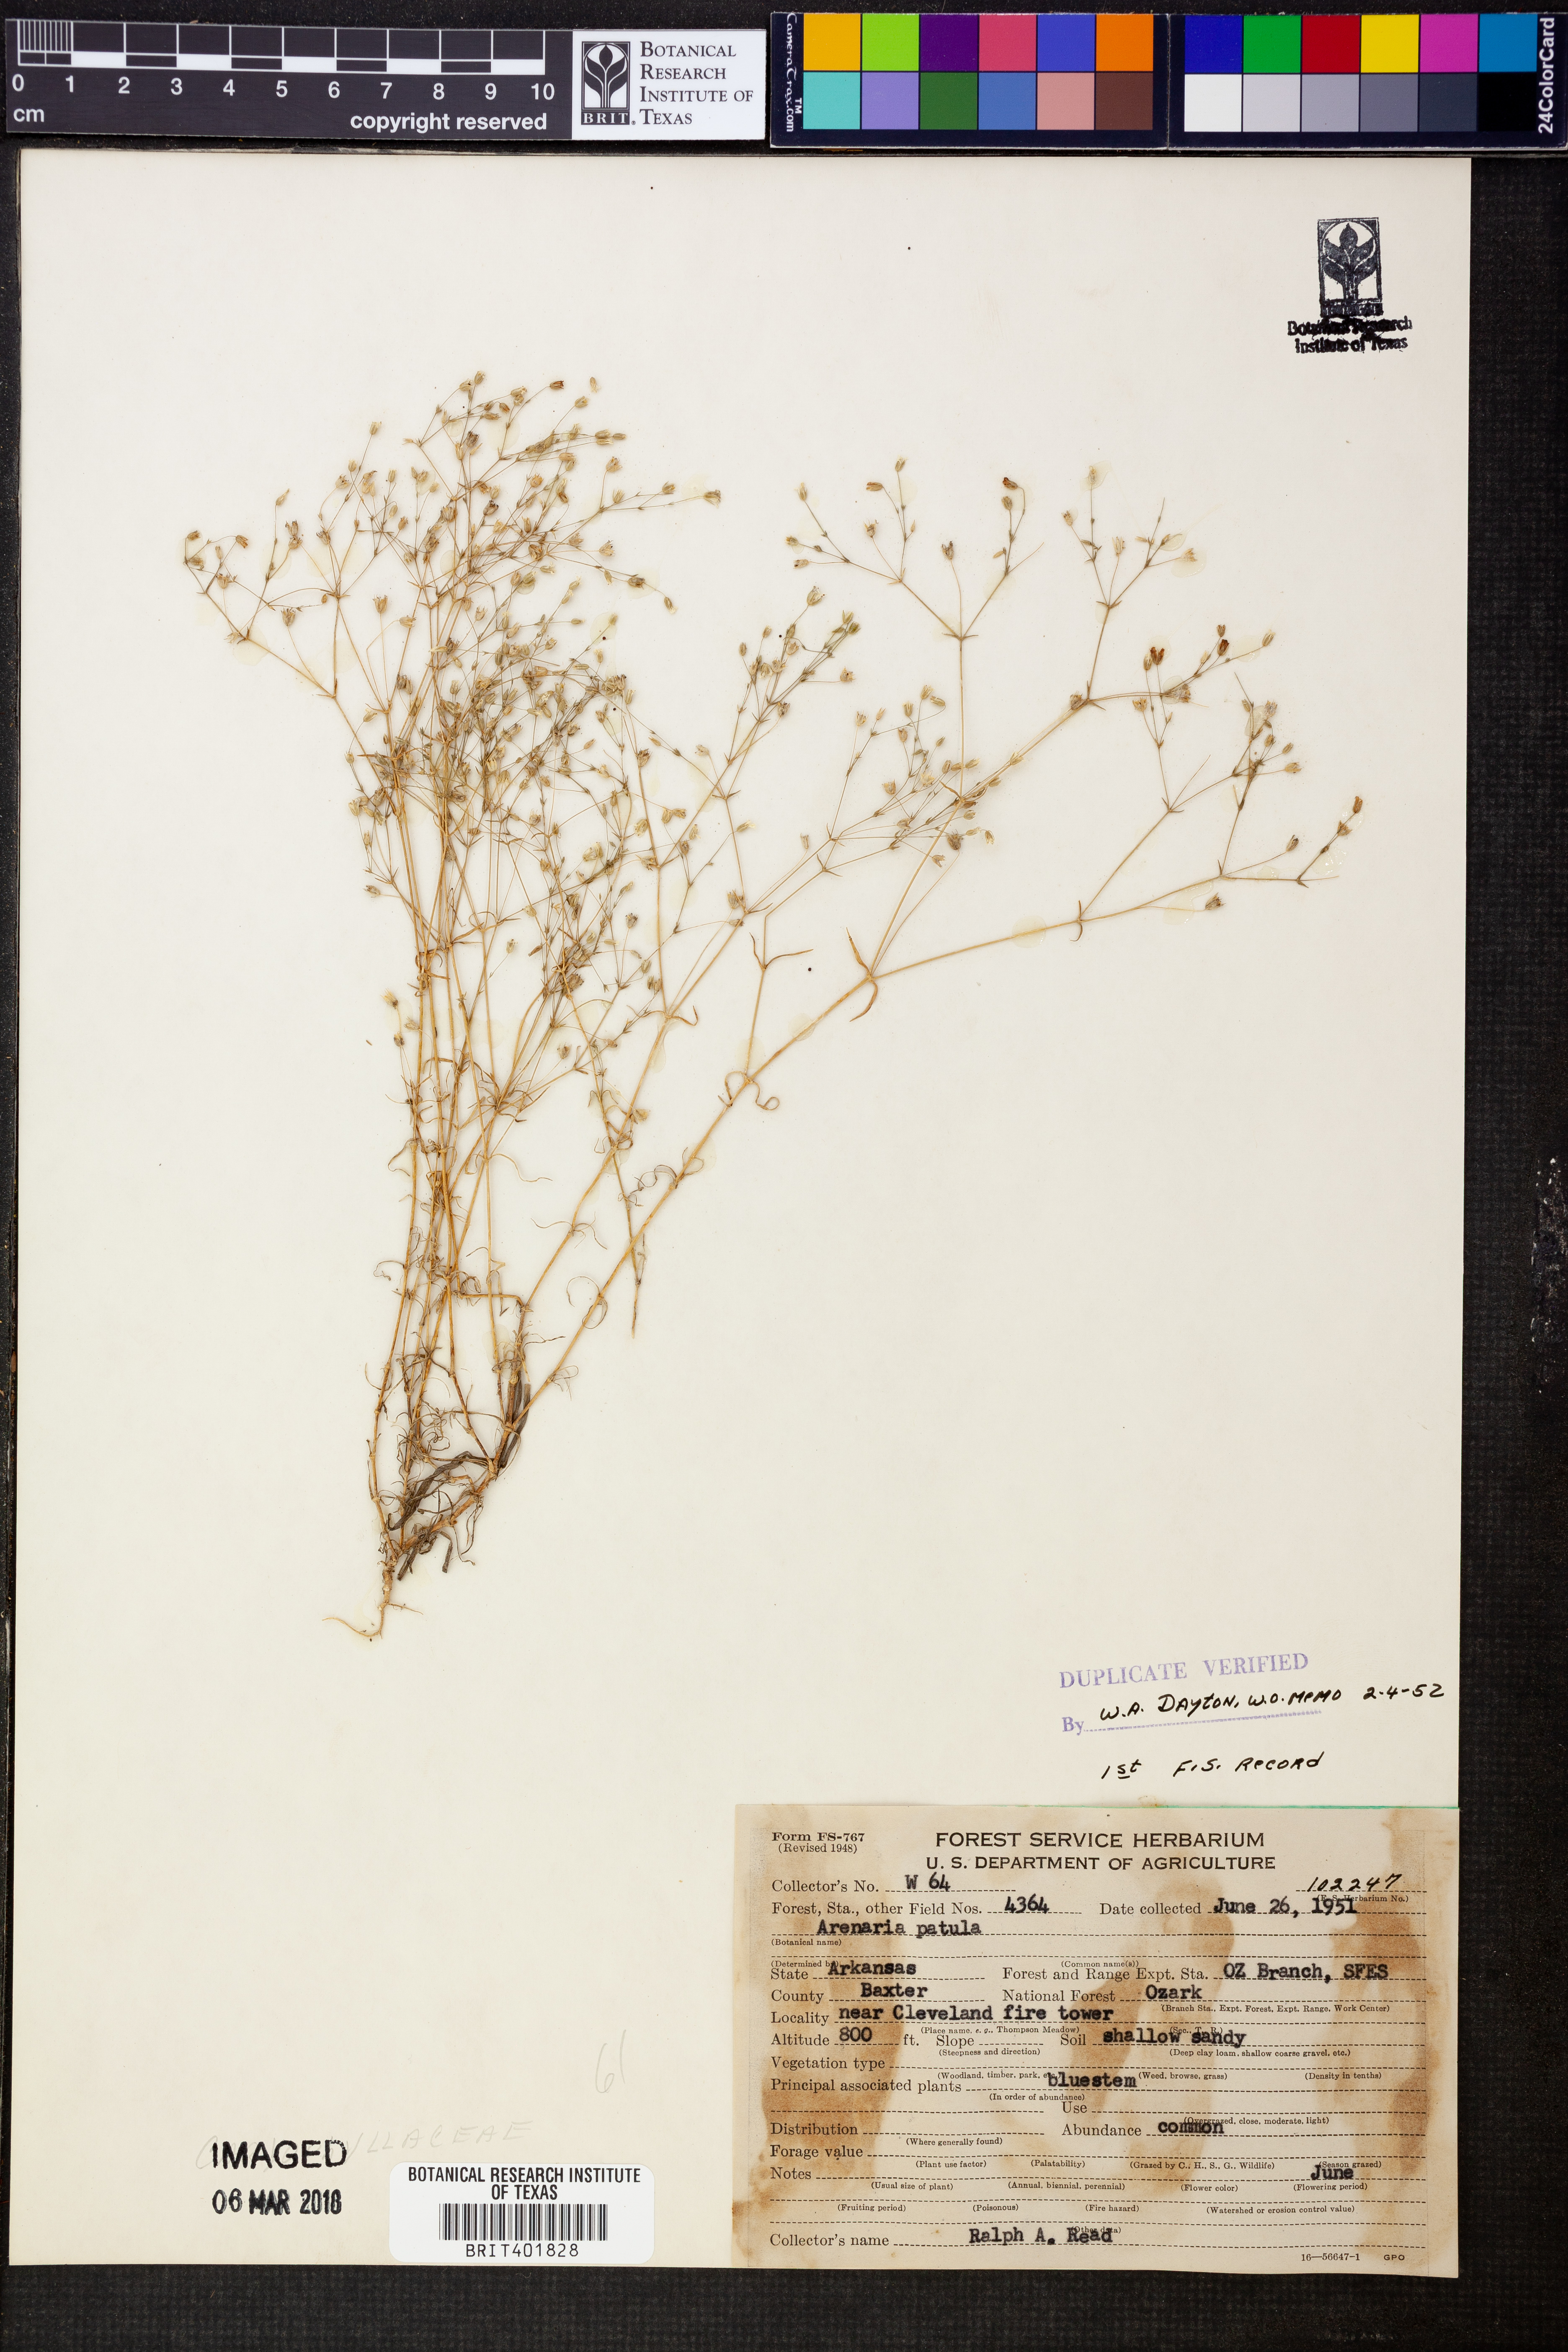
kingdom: Plantae
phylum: Tracheophyta
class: Magnoliopsida
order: Caryophyllales
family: Caryophyllaceae
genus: Mononeuria
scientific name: Mononeuria patula
